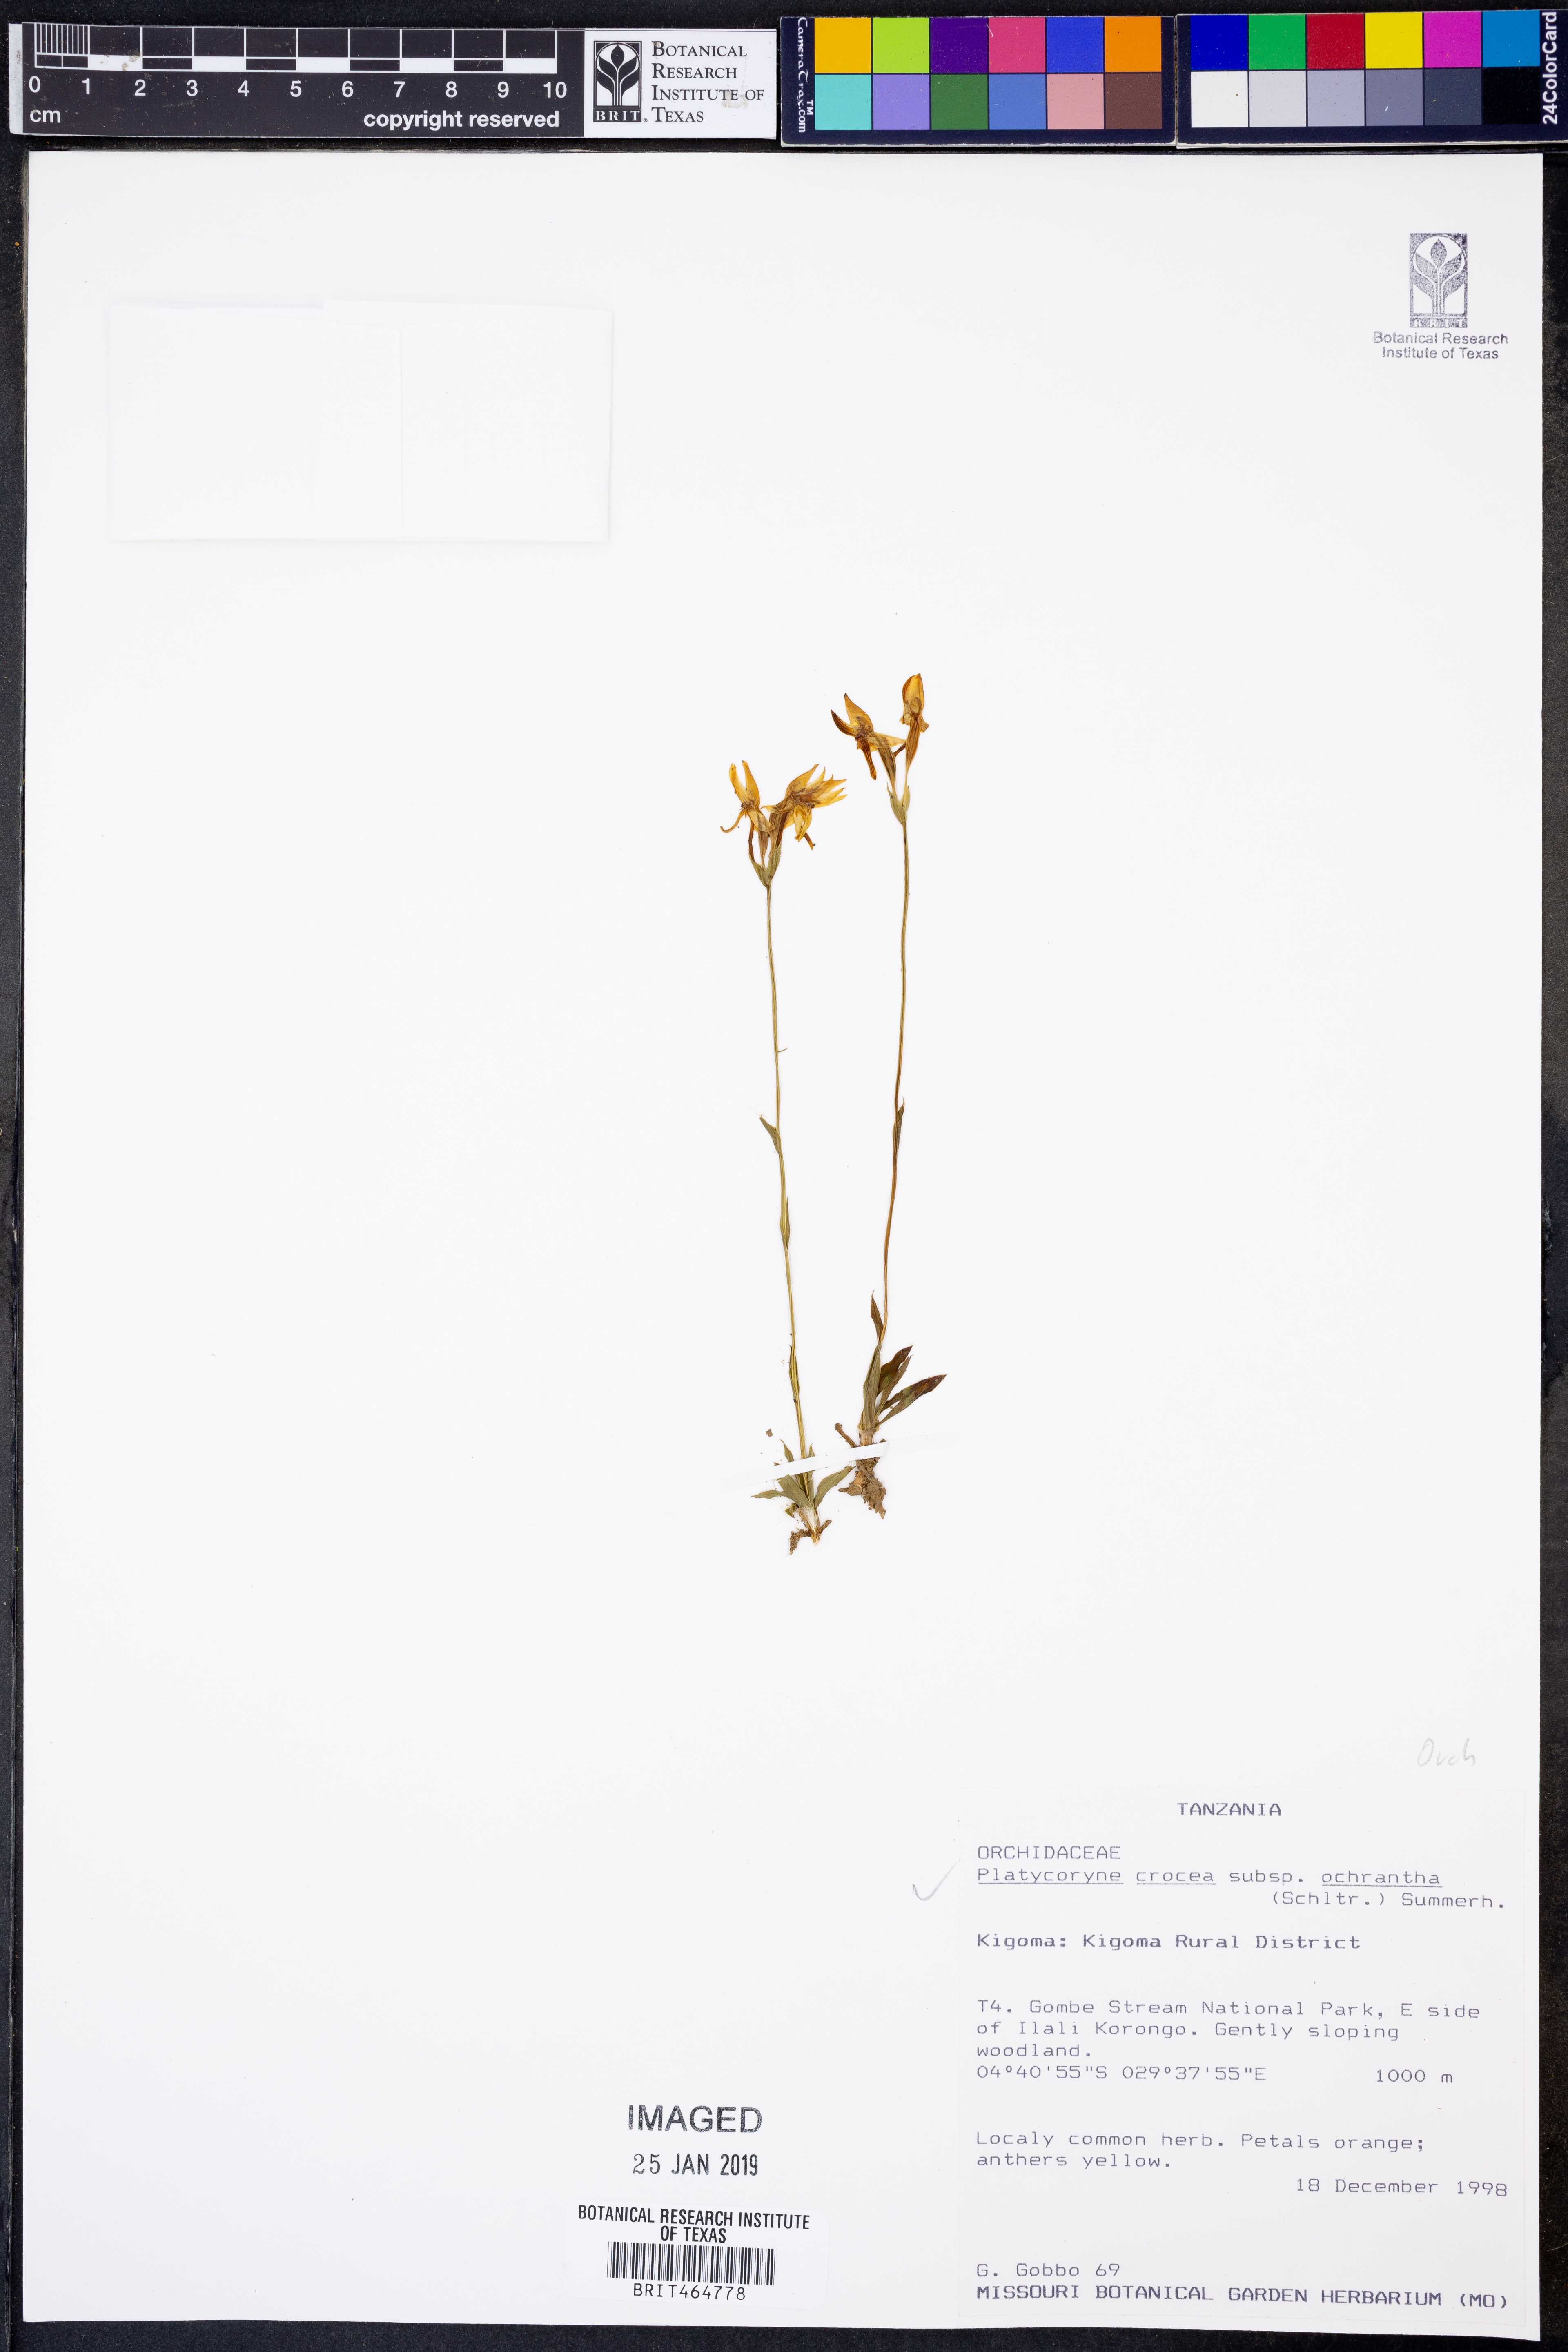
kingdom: Plantae
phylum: Tracheophyta
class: Liliopsida
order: Asparagales
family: Orchidaceae
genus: Platycoryne
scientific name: Platycoryne crocea
